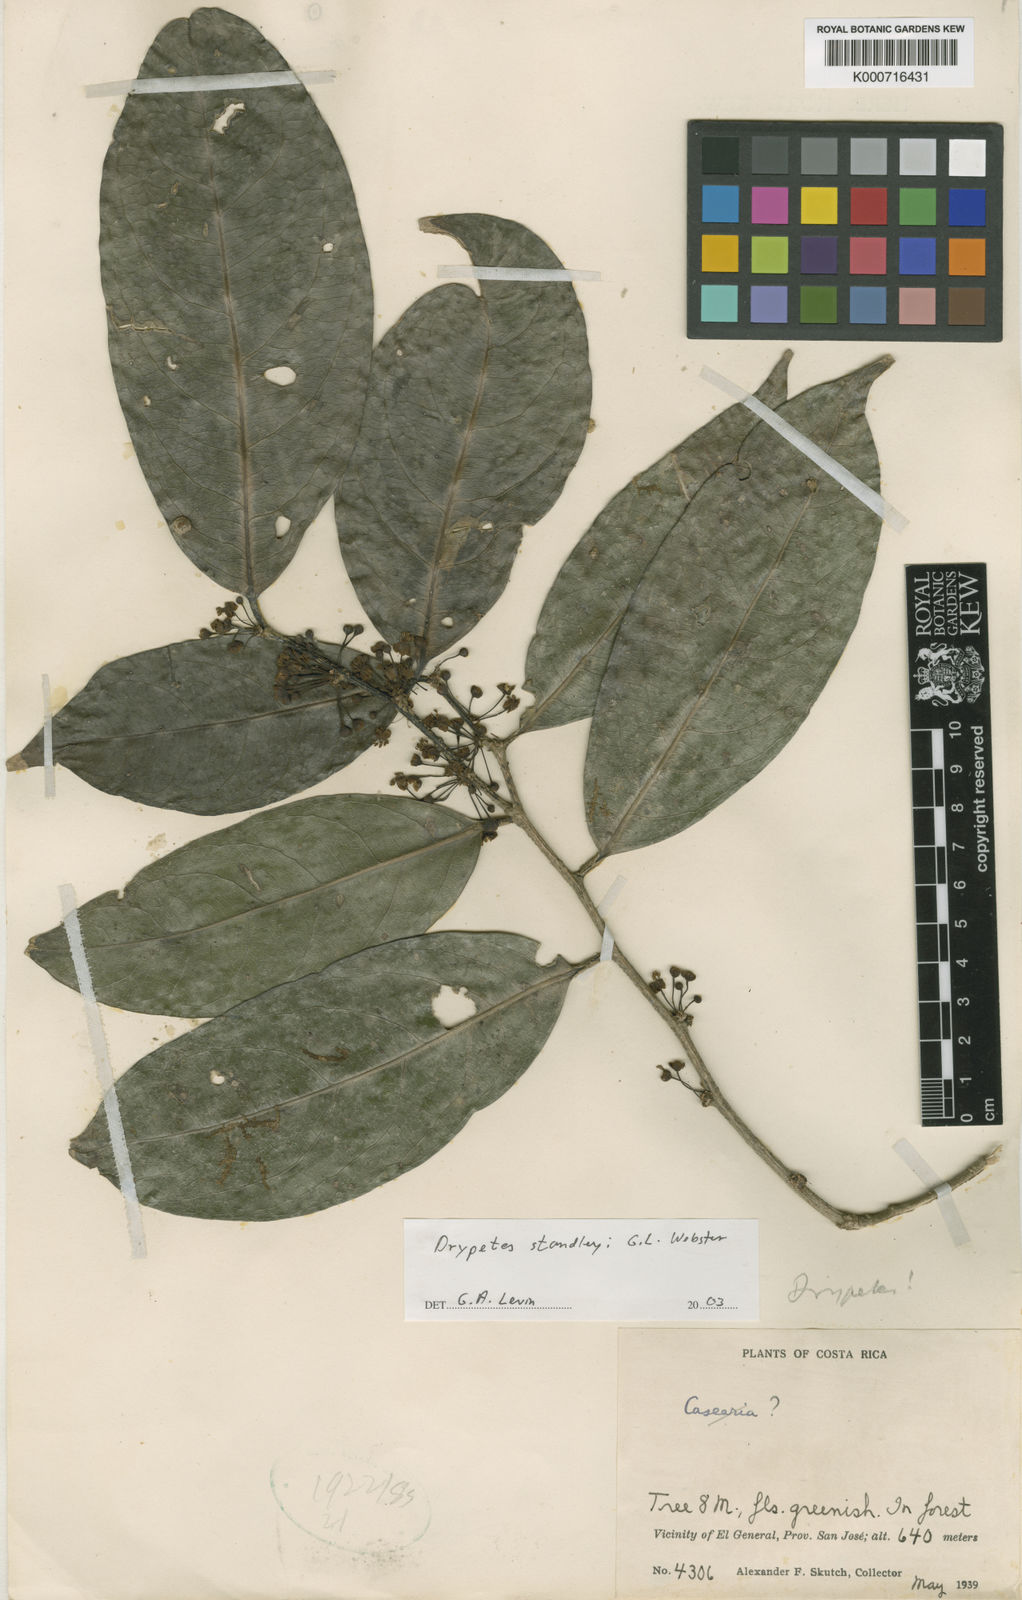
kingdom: Plantae
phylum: Tracheophyta
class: Magnoliopsida
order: Malpighiales
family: Putranjivaceae
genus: Drypetes
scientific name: Drypetes standleyi
